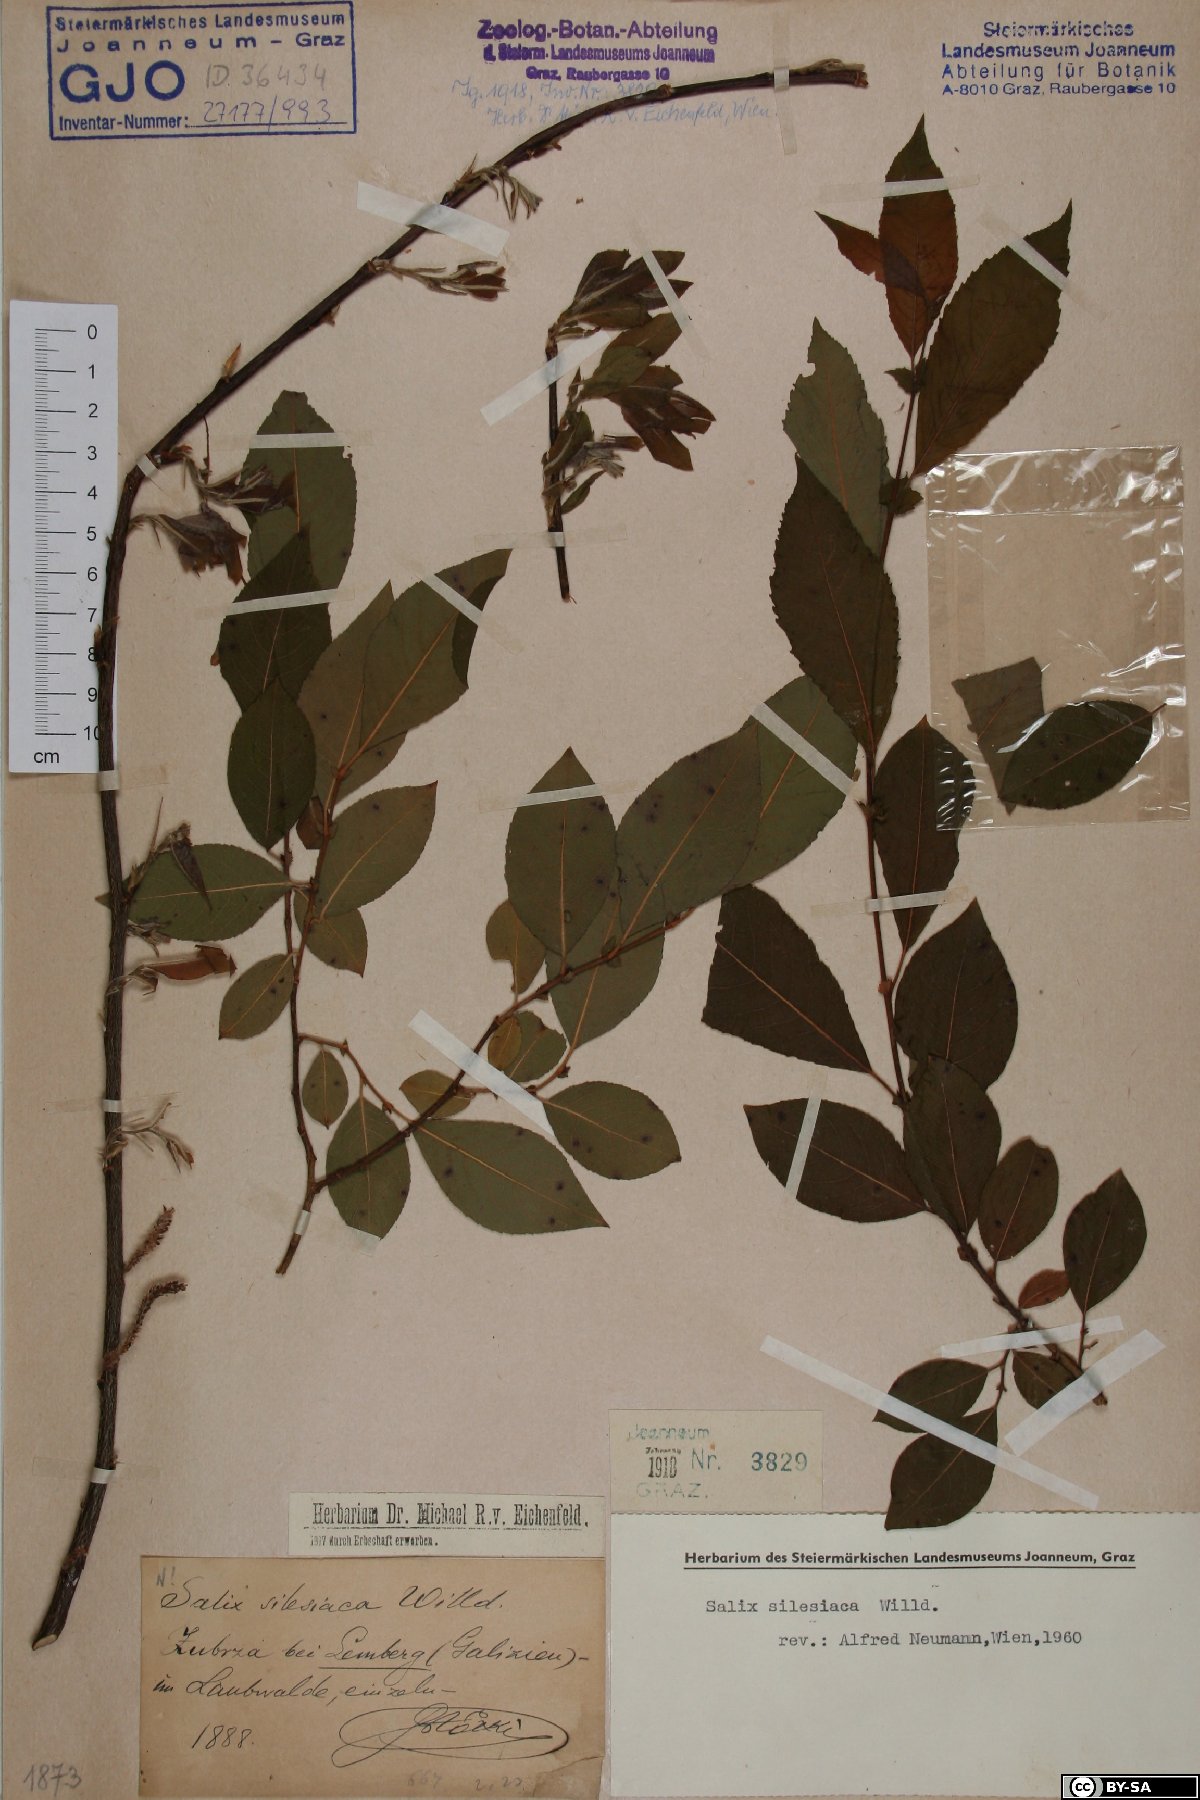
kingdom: Plantae
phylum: Tracheophyta
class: Magnoliopsida
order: Malpighiales
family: Salicaceae
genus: Salix
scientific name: Salix silesiaca
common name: Silesian willow
